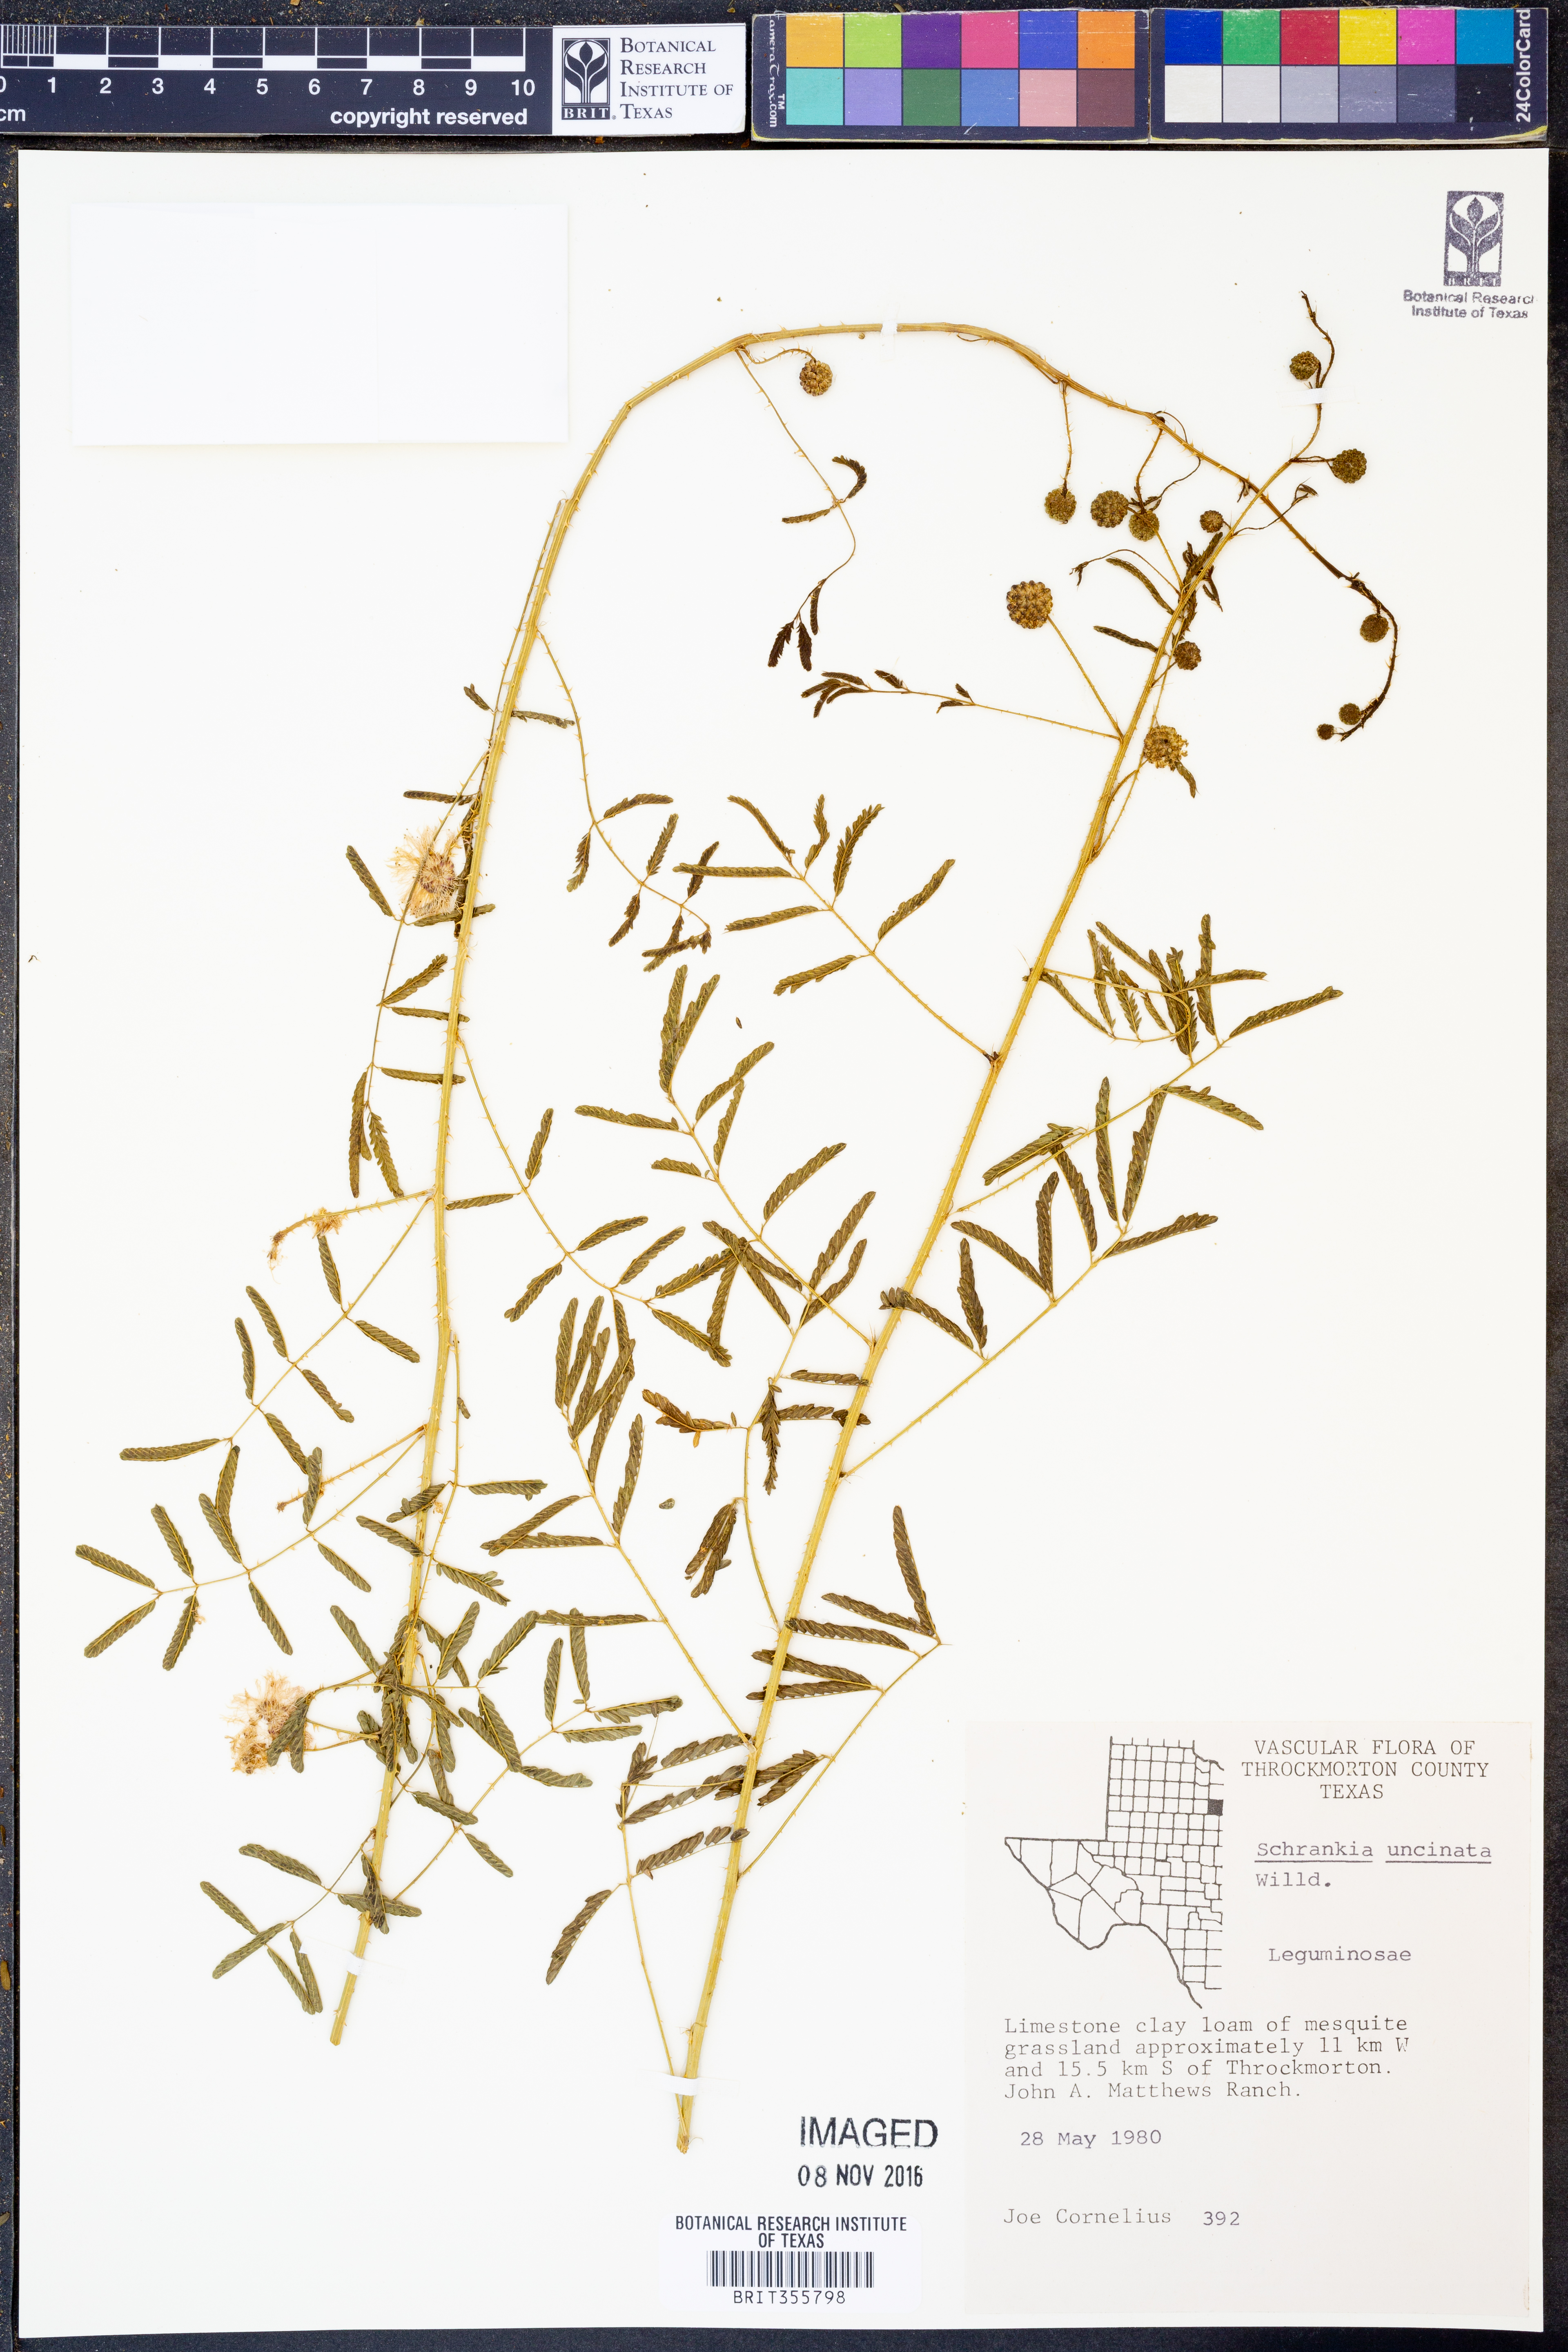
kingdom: Plantae
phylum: Tracheophyta
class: Magnoliopsida
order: Fabales
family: Fabaceae
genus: Mimosa
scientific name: Mimosa quadrivalvis
